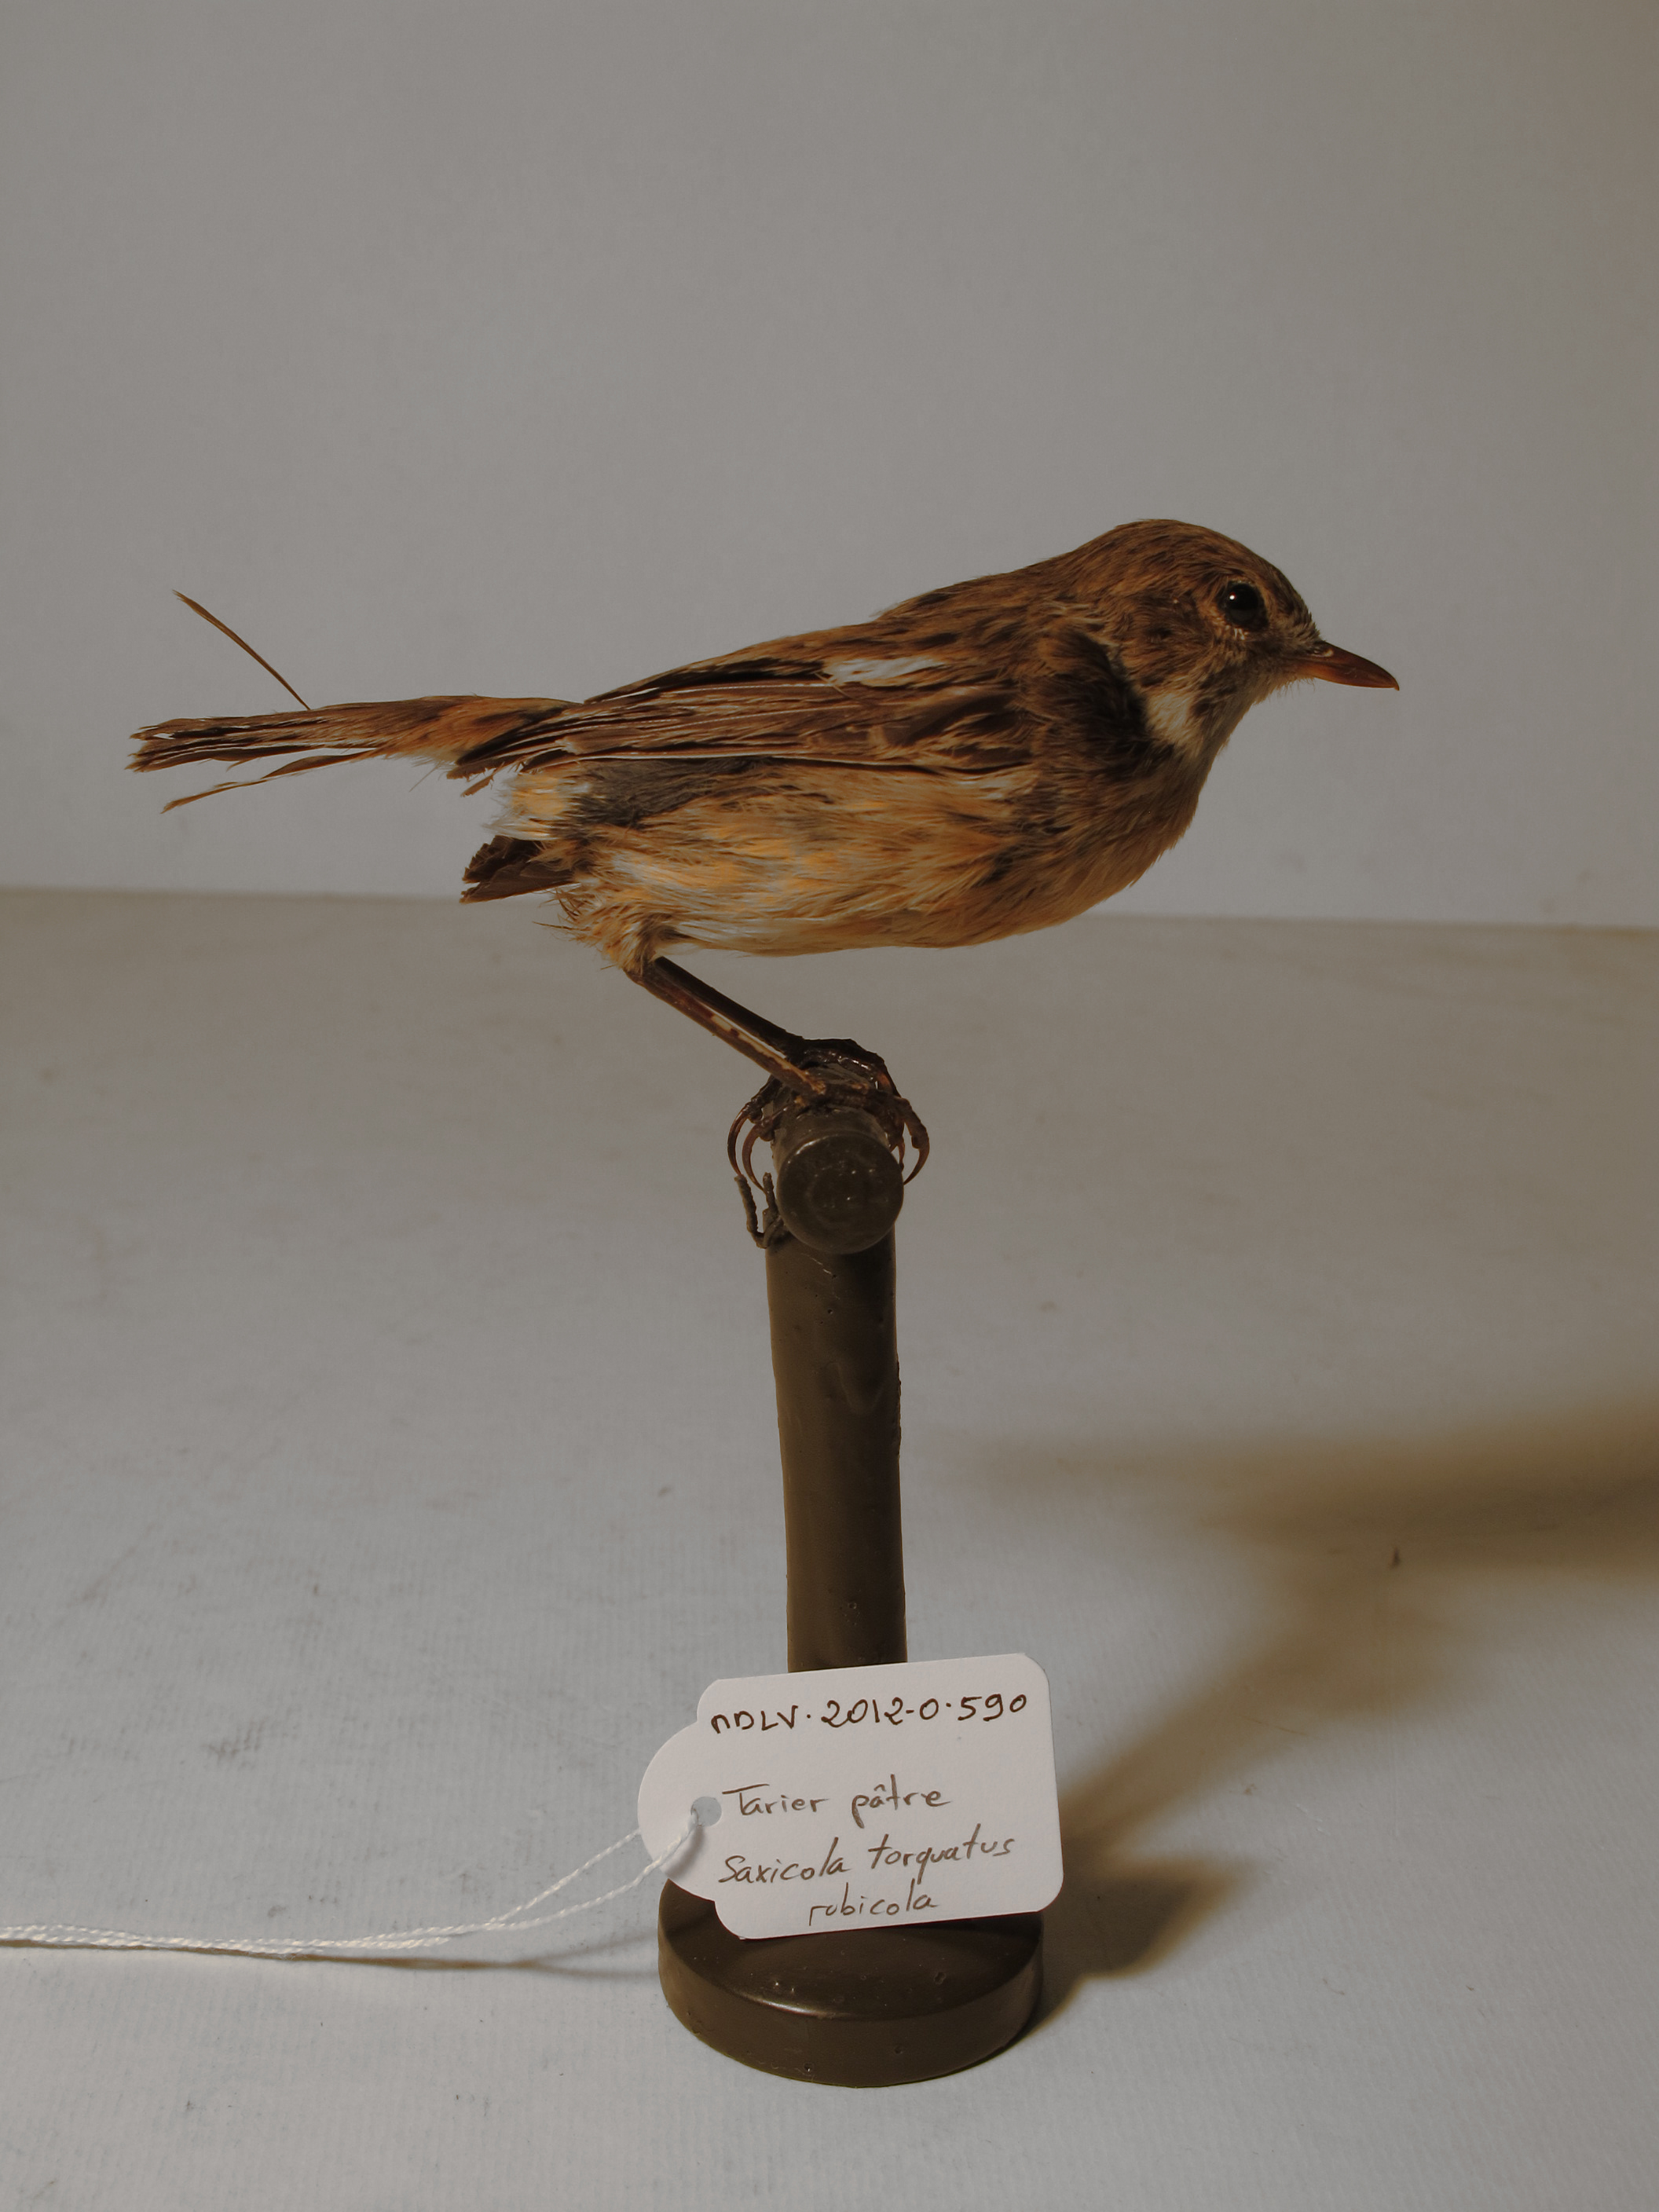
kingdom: Animalia
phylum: Chordata
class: Aves
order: Passeriformes
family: Muscicapidae
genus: Saxicola
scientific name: Saxicola rubicola
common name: Common Stonechat
